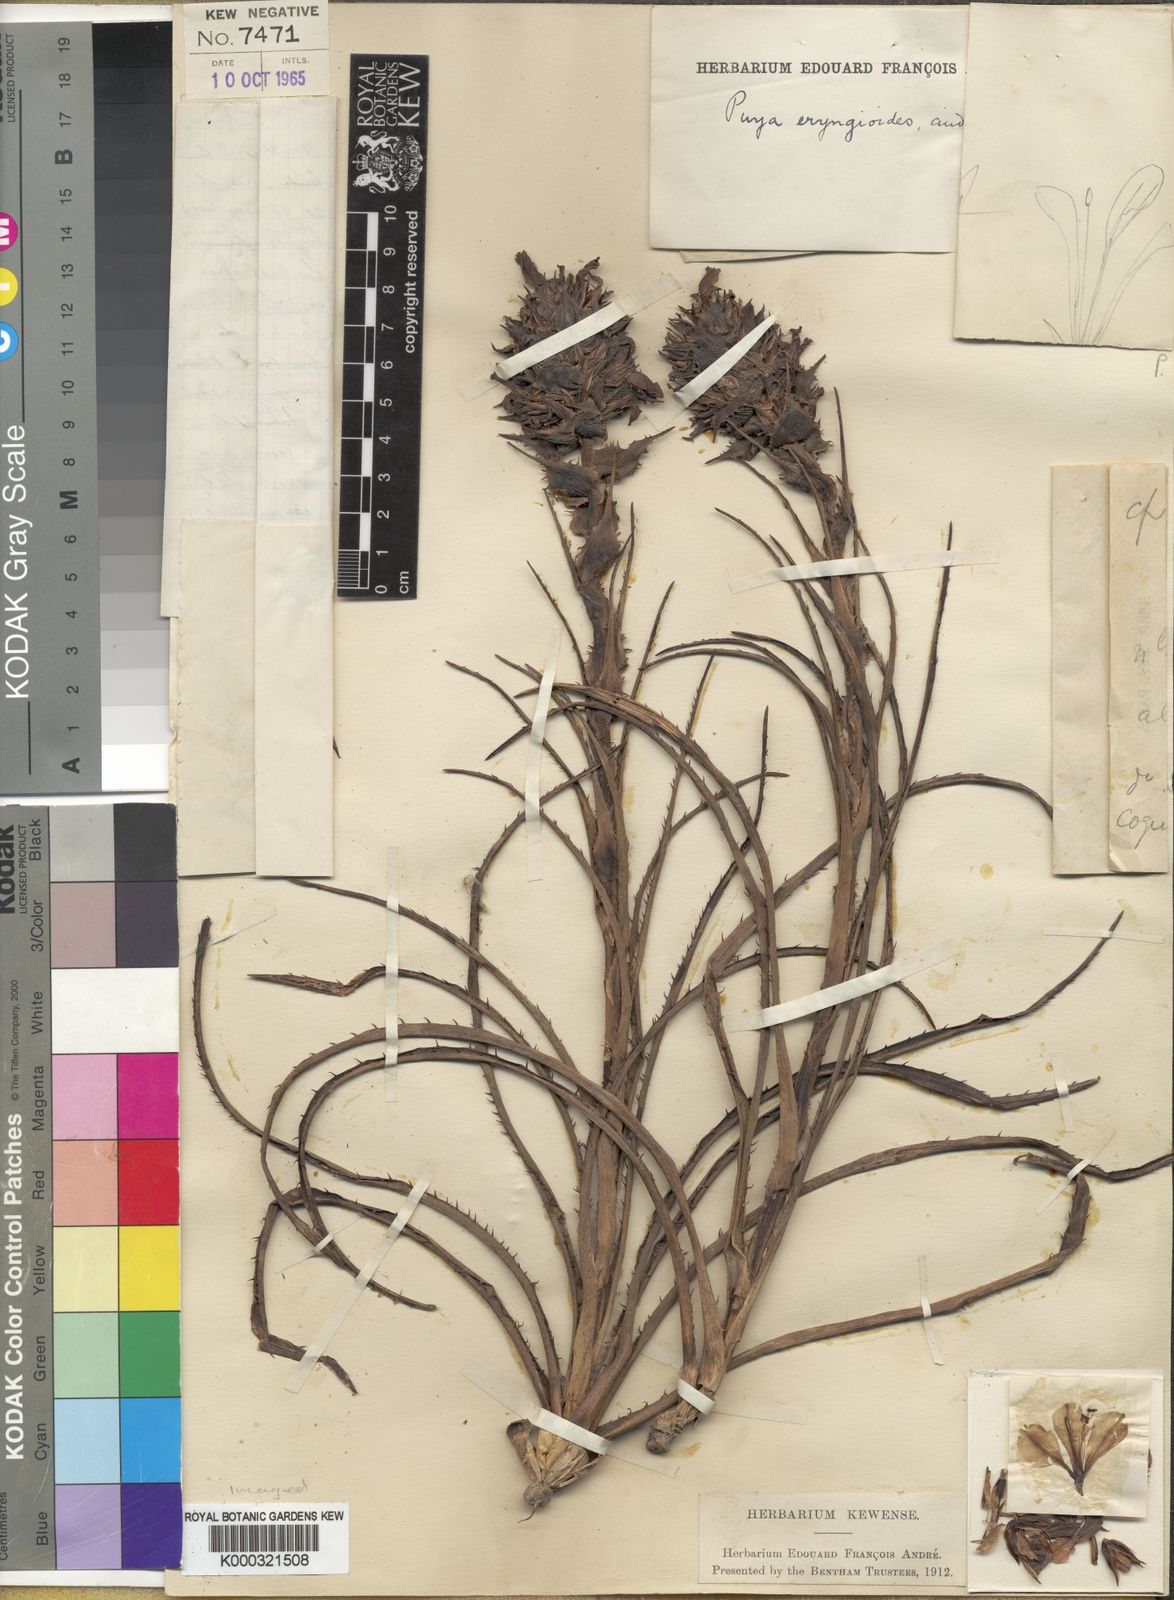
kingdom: Plantae
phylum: Tracheophyta
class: Liliopsida
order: Poales
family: Bromeliaceae
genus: Puya
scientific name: Puya eryngioides
